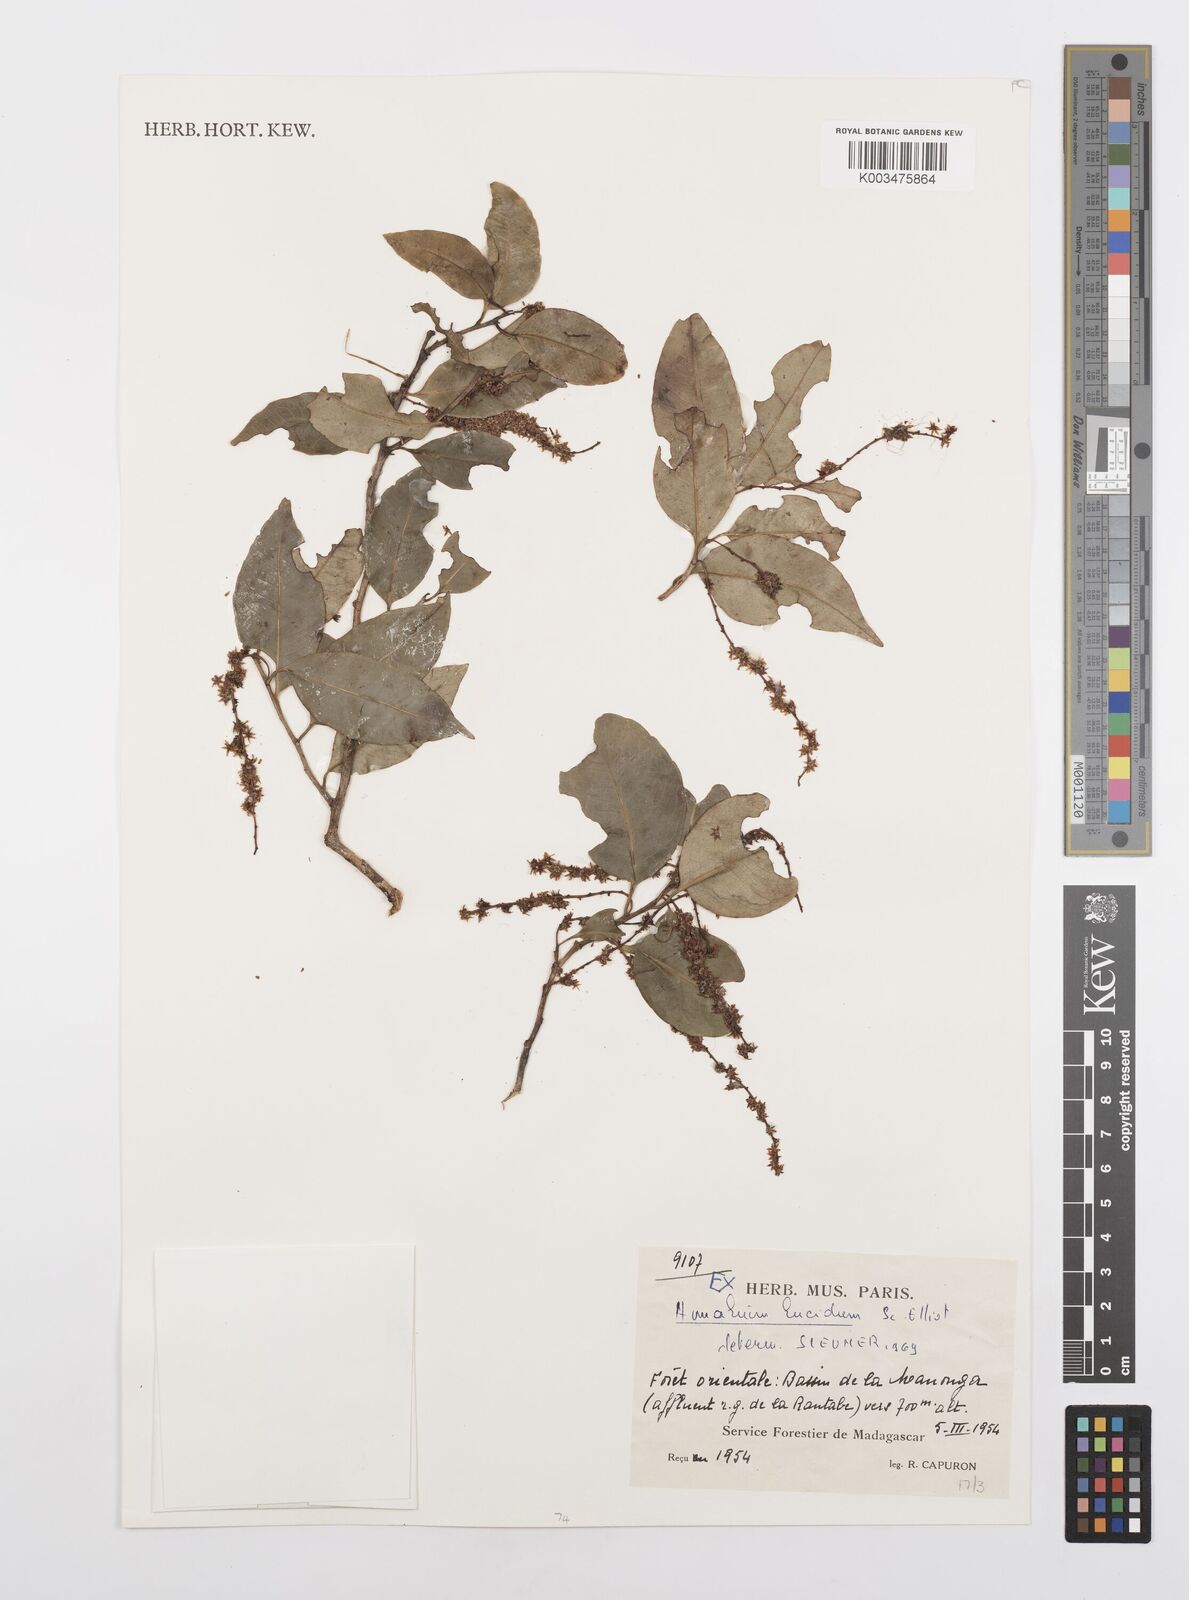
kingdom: Plantae
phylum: Tracheophyta
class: Magnoliopsida
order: Malpighiales
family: Salicaceae
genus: Homalium
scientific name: Homalium lucidum
